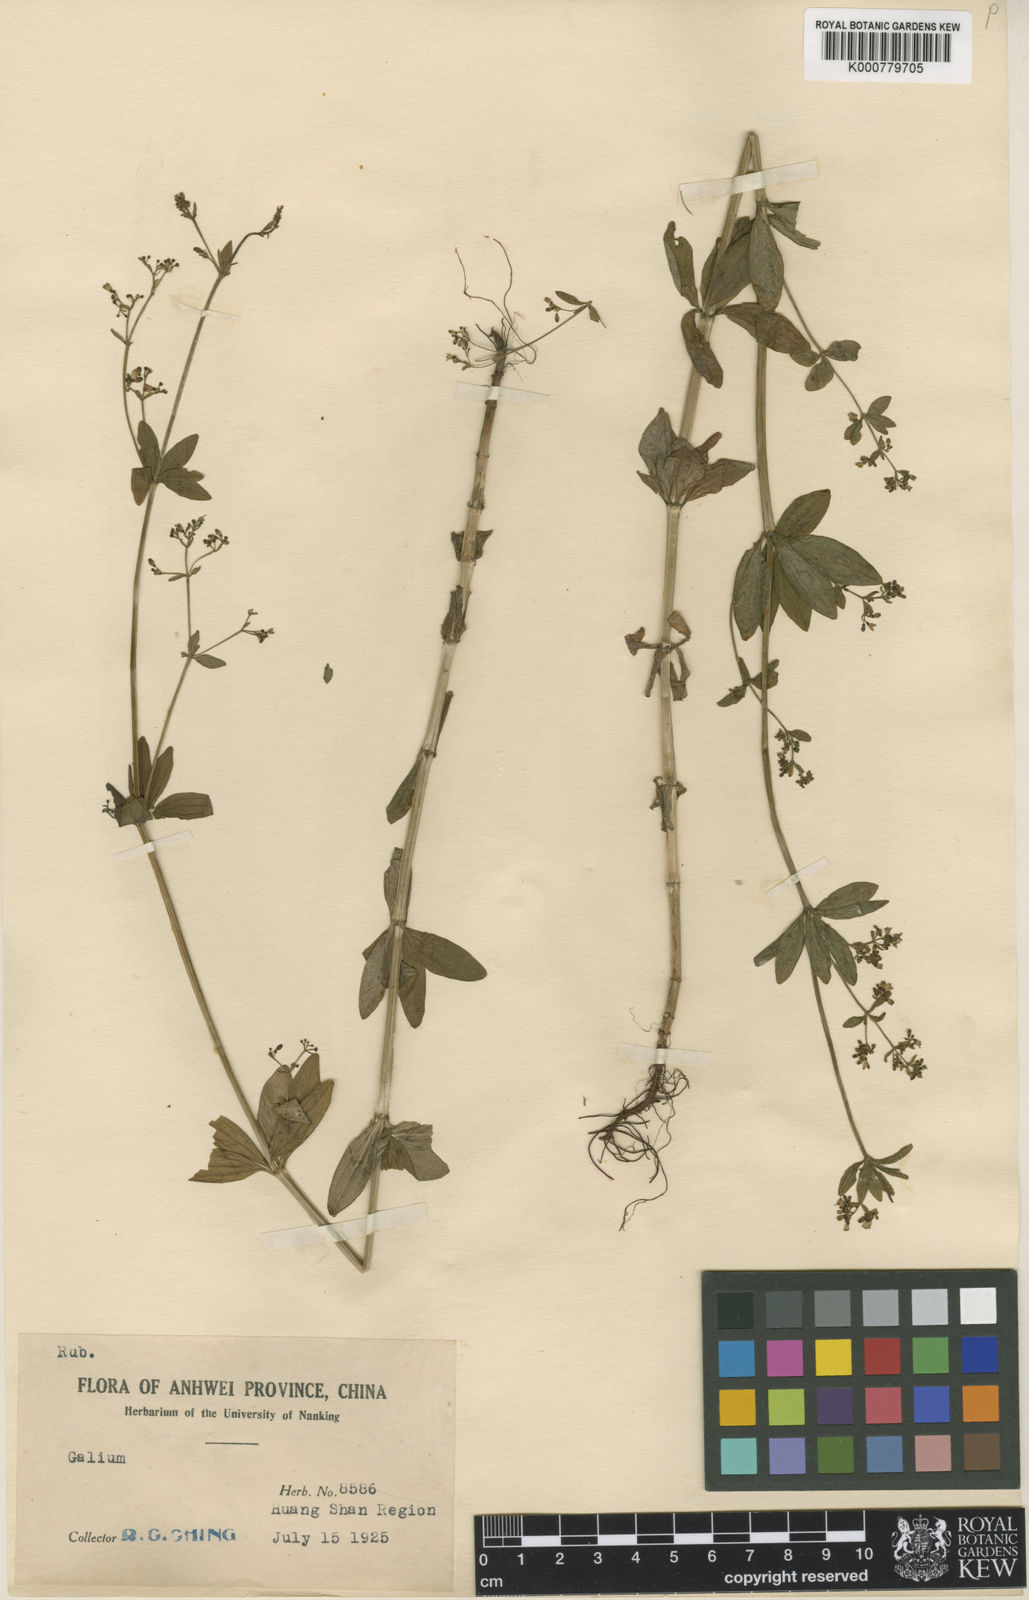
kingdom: Plantae
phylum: Tracheophyta
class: Magnoliopsida
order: Gentianales
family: Rubiaceae
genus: Galium
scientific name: Galium maximoviczii
